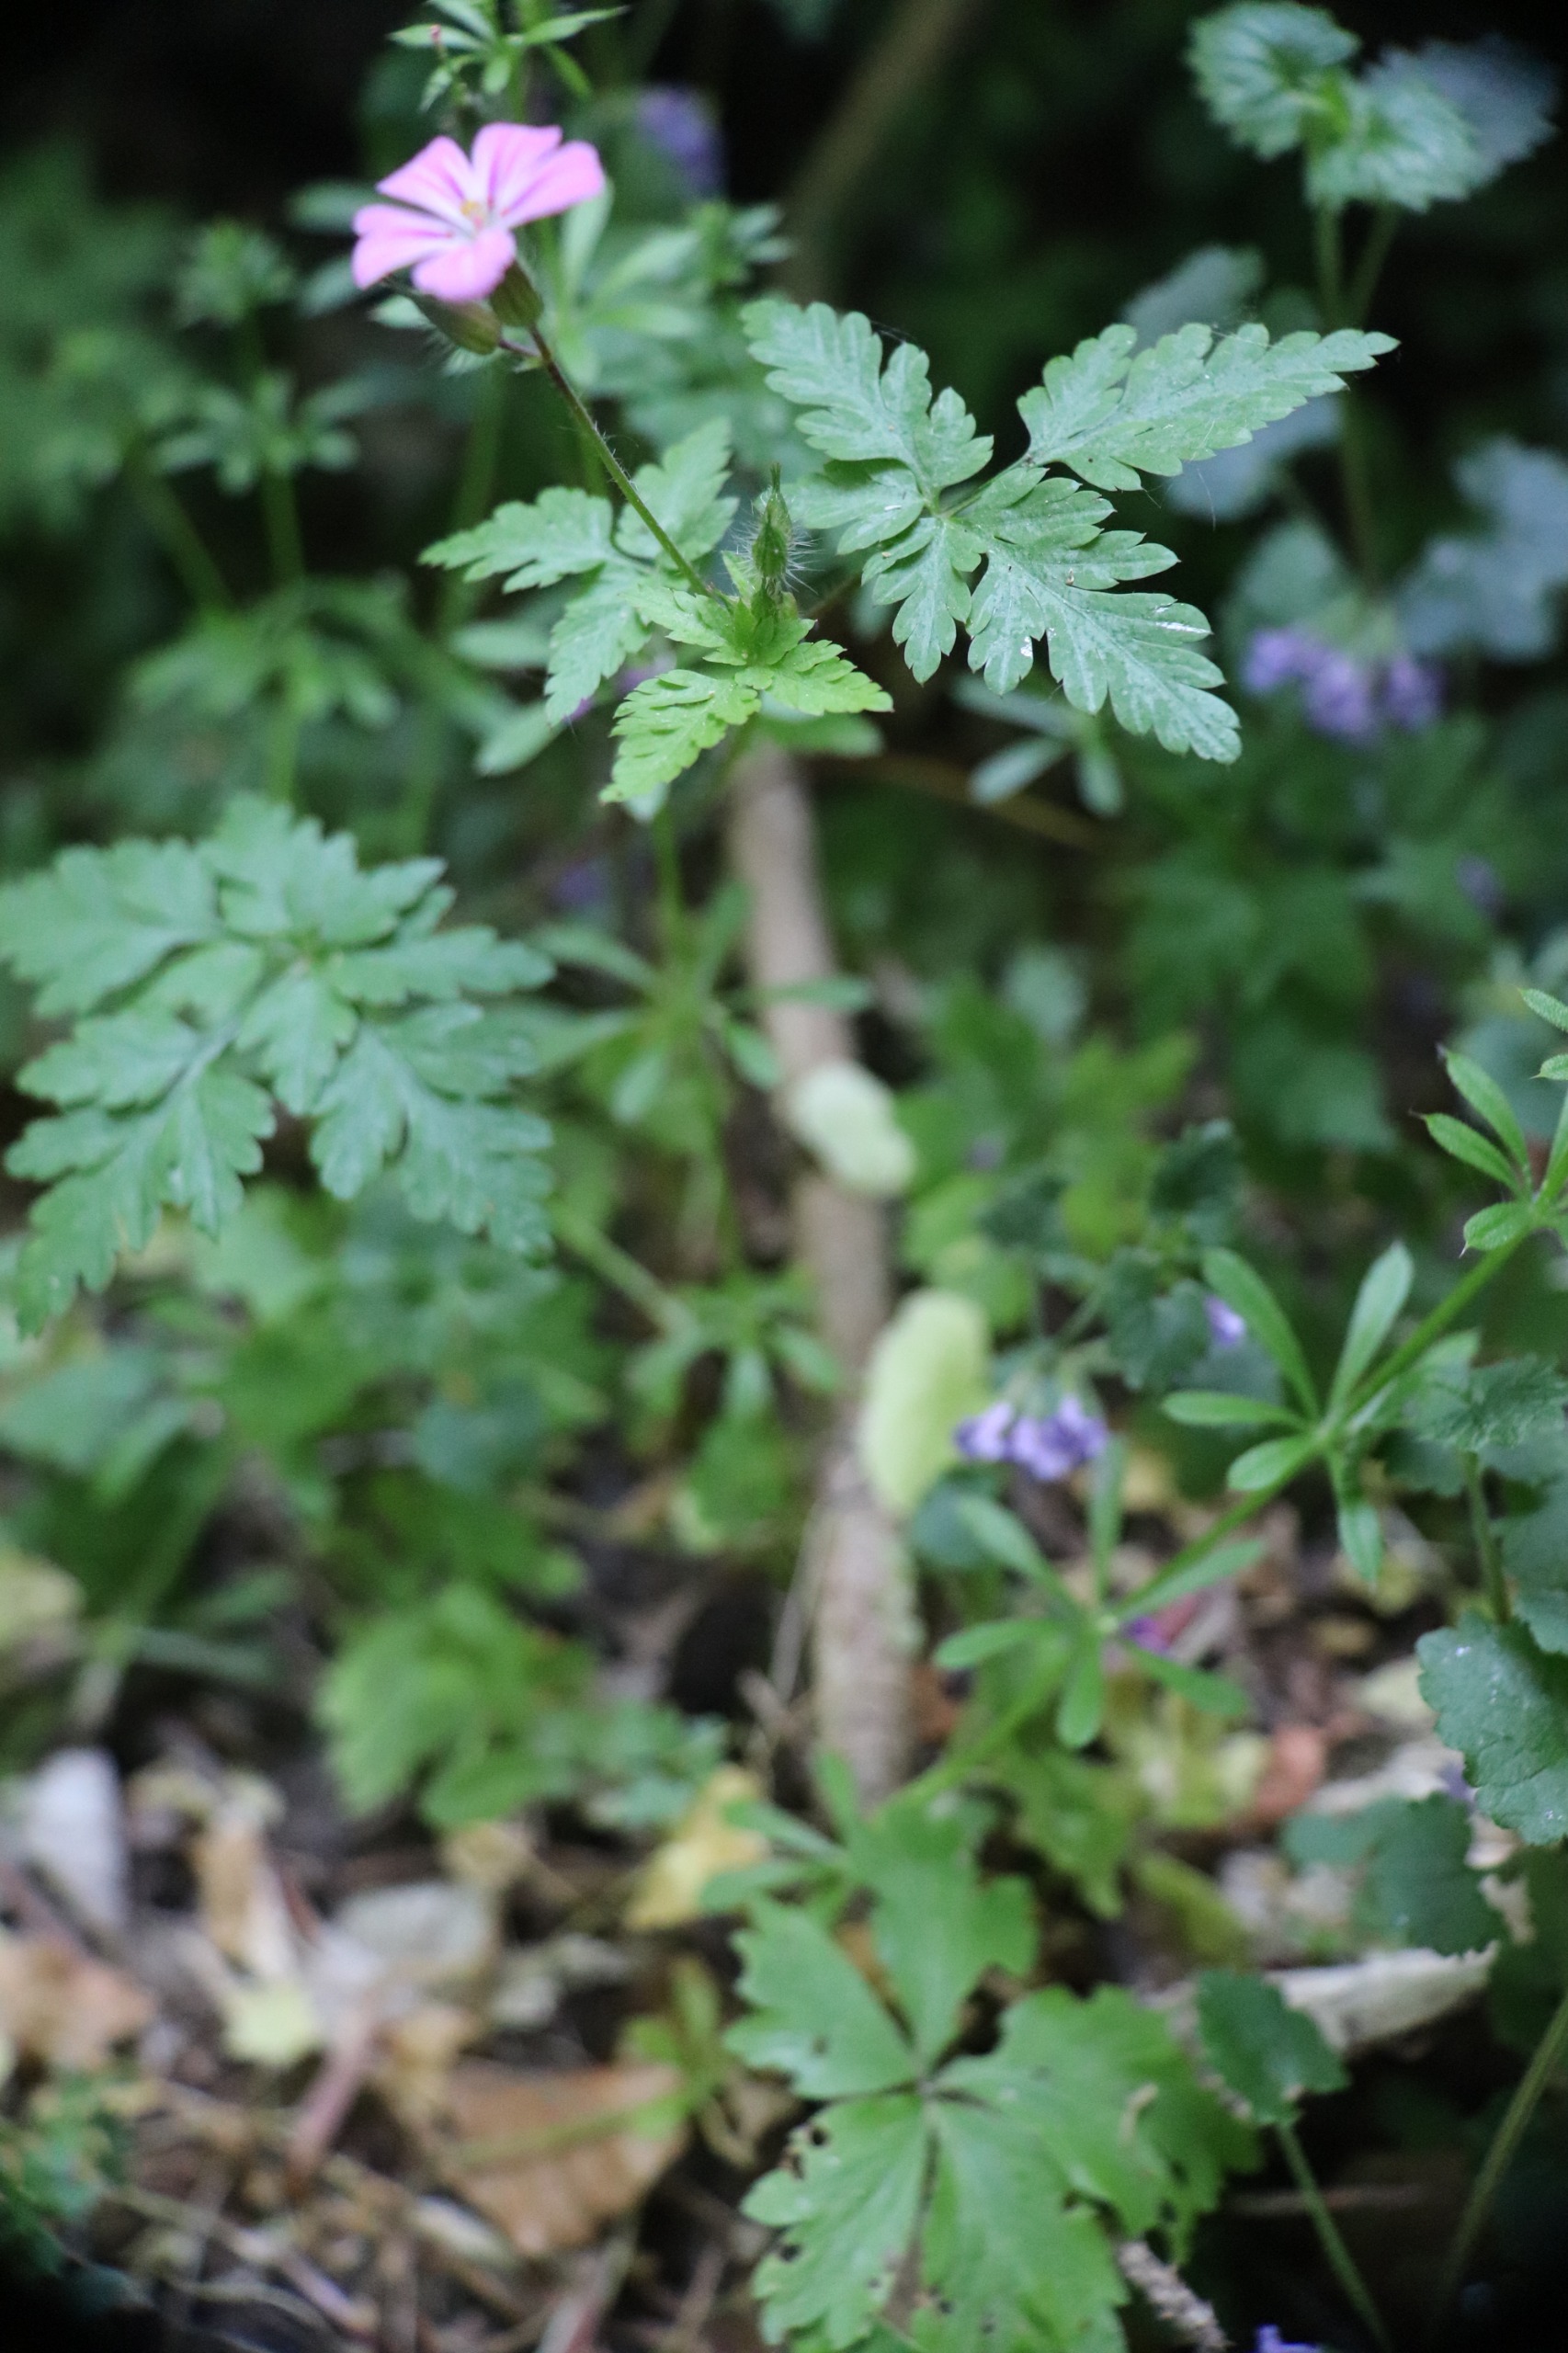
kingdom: Plantae
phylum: Tracheophyta
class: Magnoliopsida
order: Geraniales
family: Geraniaceae
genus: Geranium
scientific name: Geranium robertianum
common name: Stinkende storkenæb
